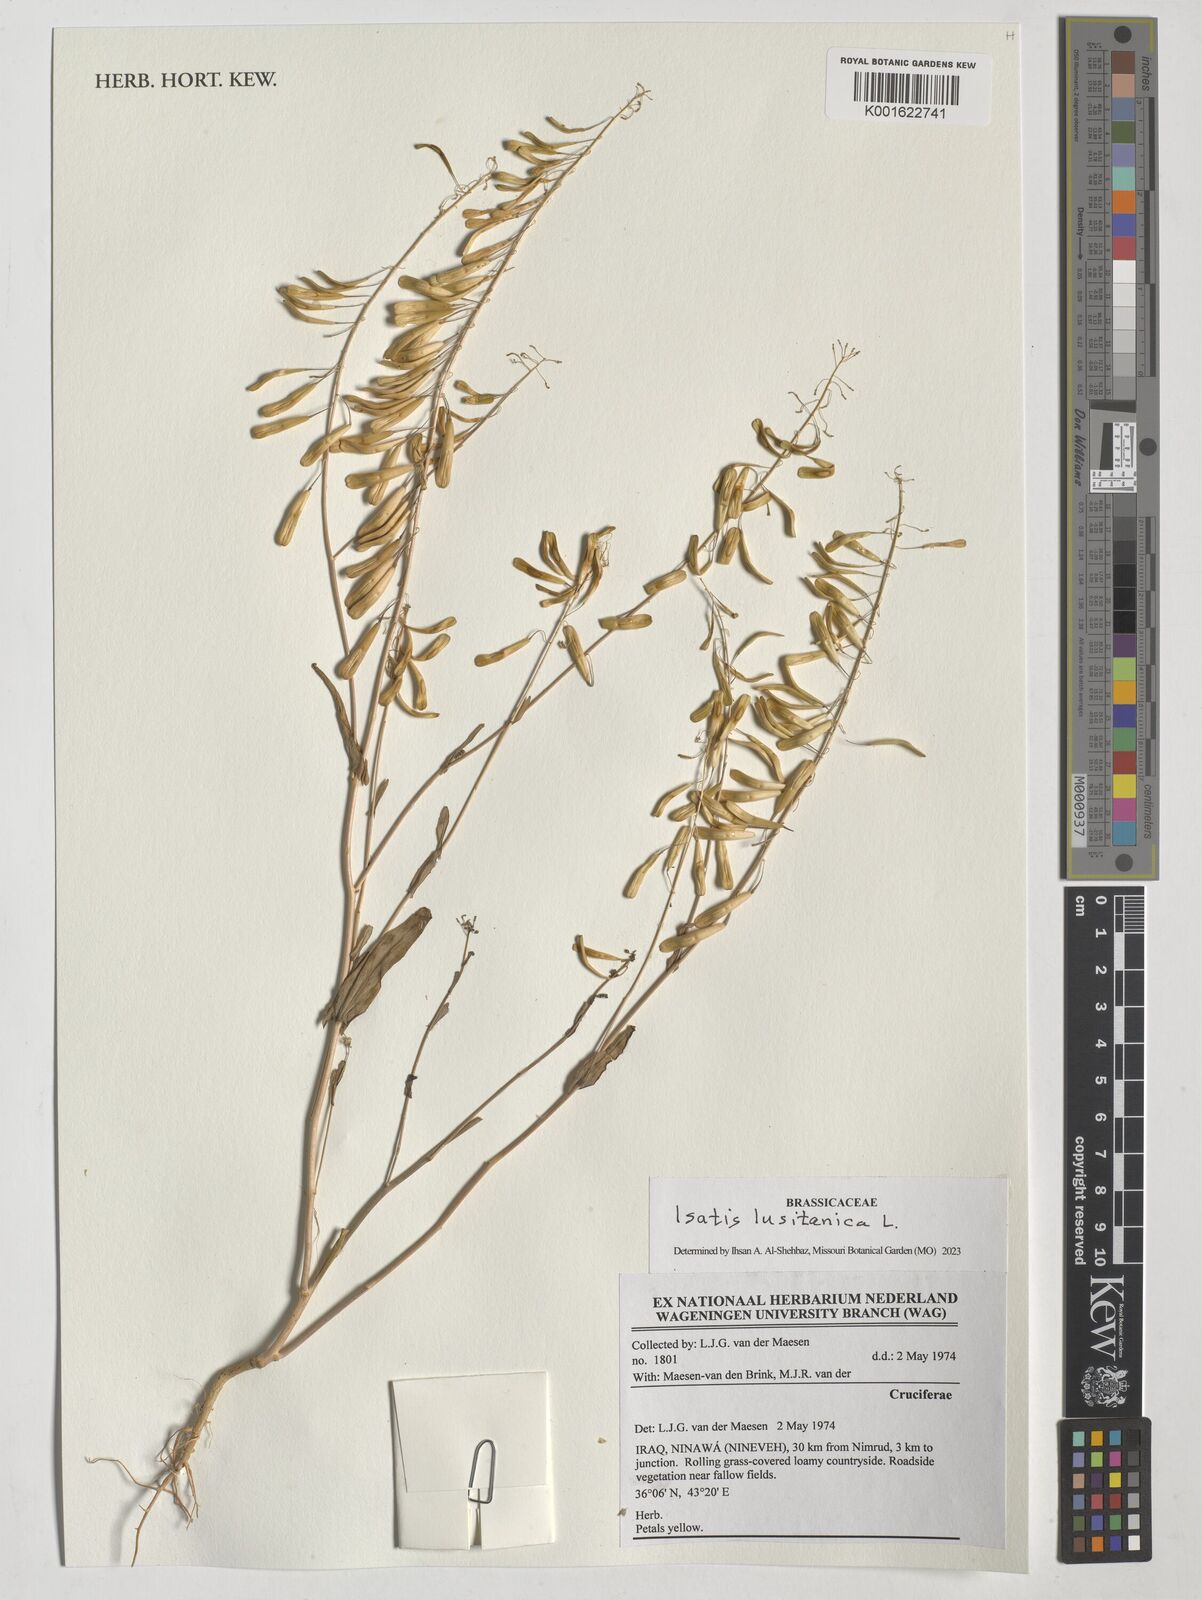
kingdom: Plantae
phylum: Tracheophyta
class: Magnoliopsida
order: Brassicales
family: Brassicaceae
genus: Isatis
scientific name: Isatis lusitanica
